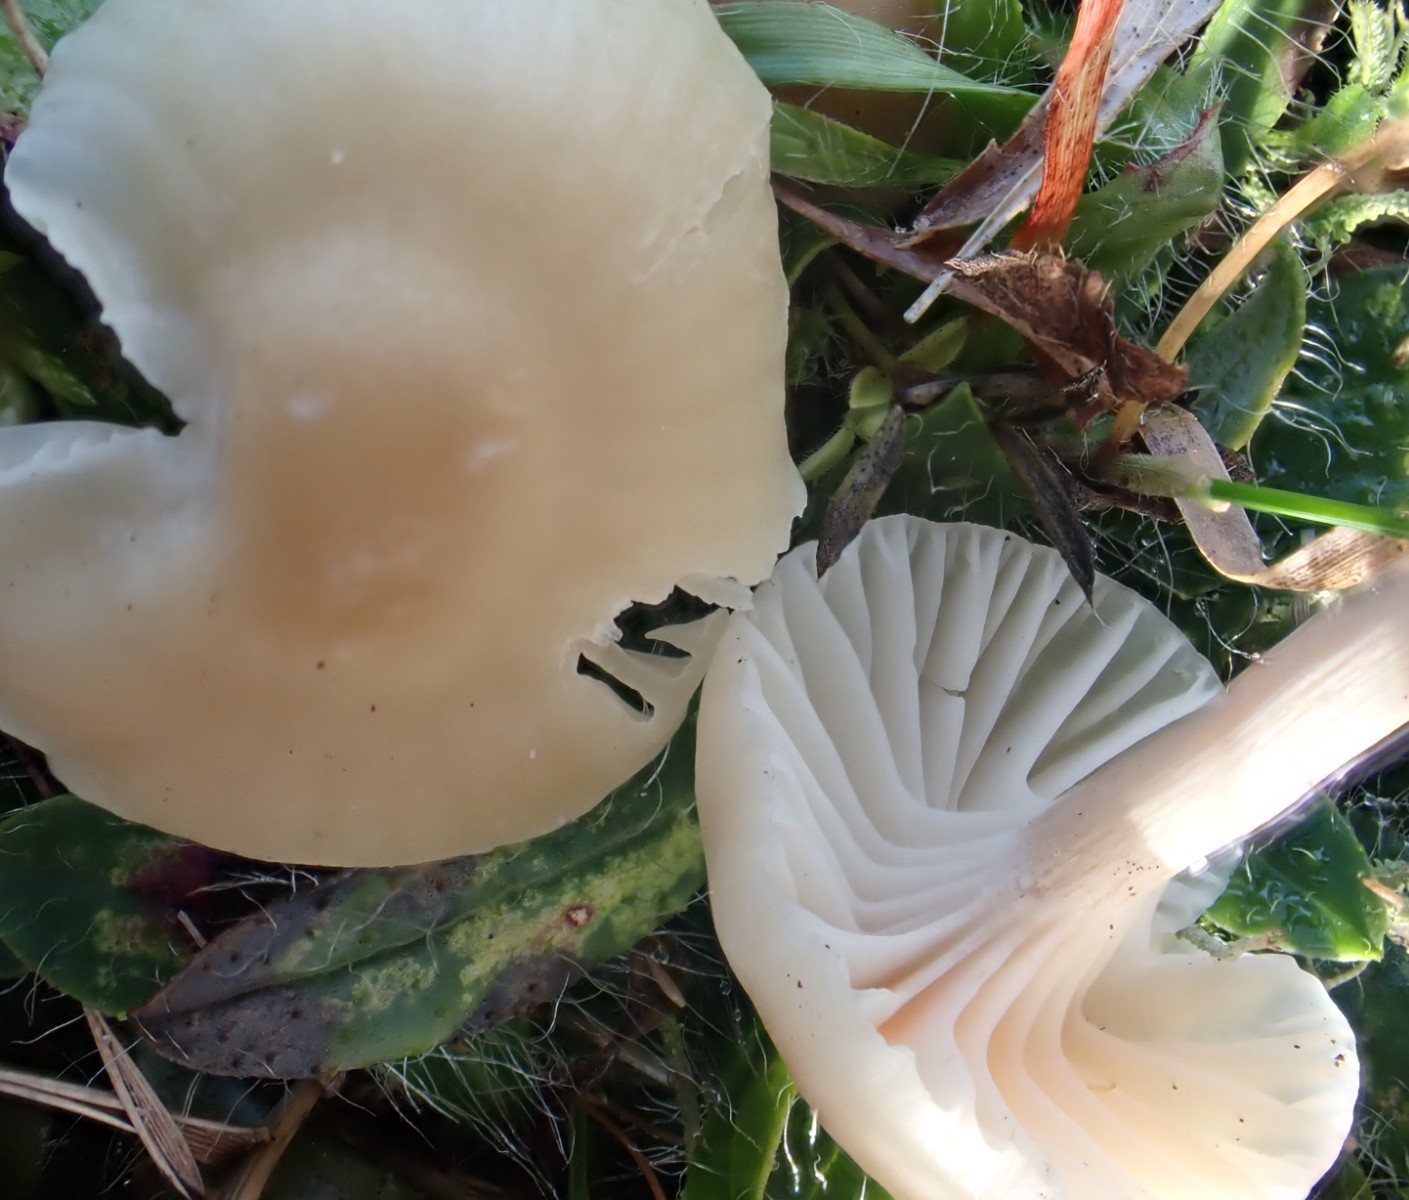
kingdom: Fungi
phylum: Basidiomycota
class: Agaricomycetes
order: Agaricales
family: Hygrophoraceae
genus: Cuphophyllus
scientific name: Cuphophyllus virgineus
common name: isabella-vokshat
